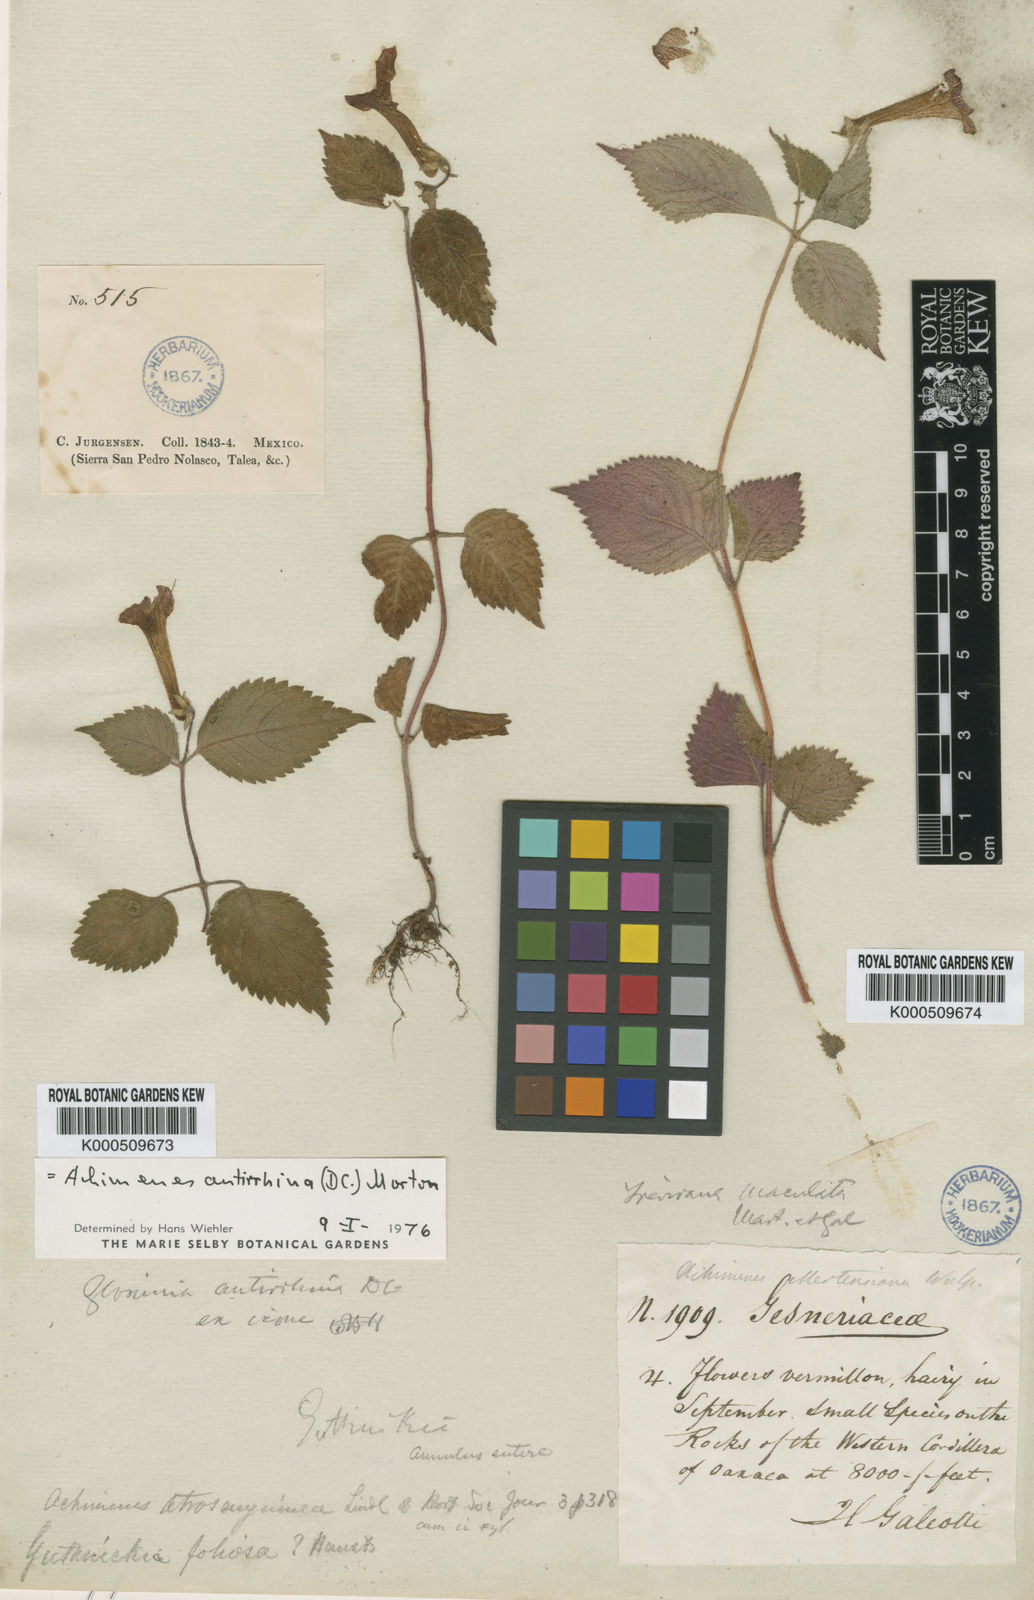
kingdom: Plantae
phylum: Tracheophyta
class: Magnoliopsida
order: Lamiales
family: Gesneriaceae
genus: Achimenes
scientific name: Achimenes antirrhina
